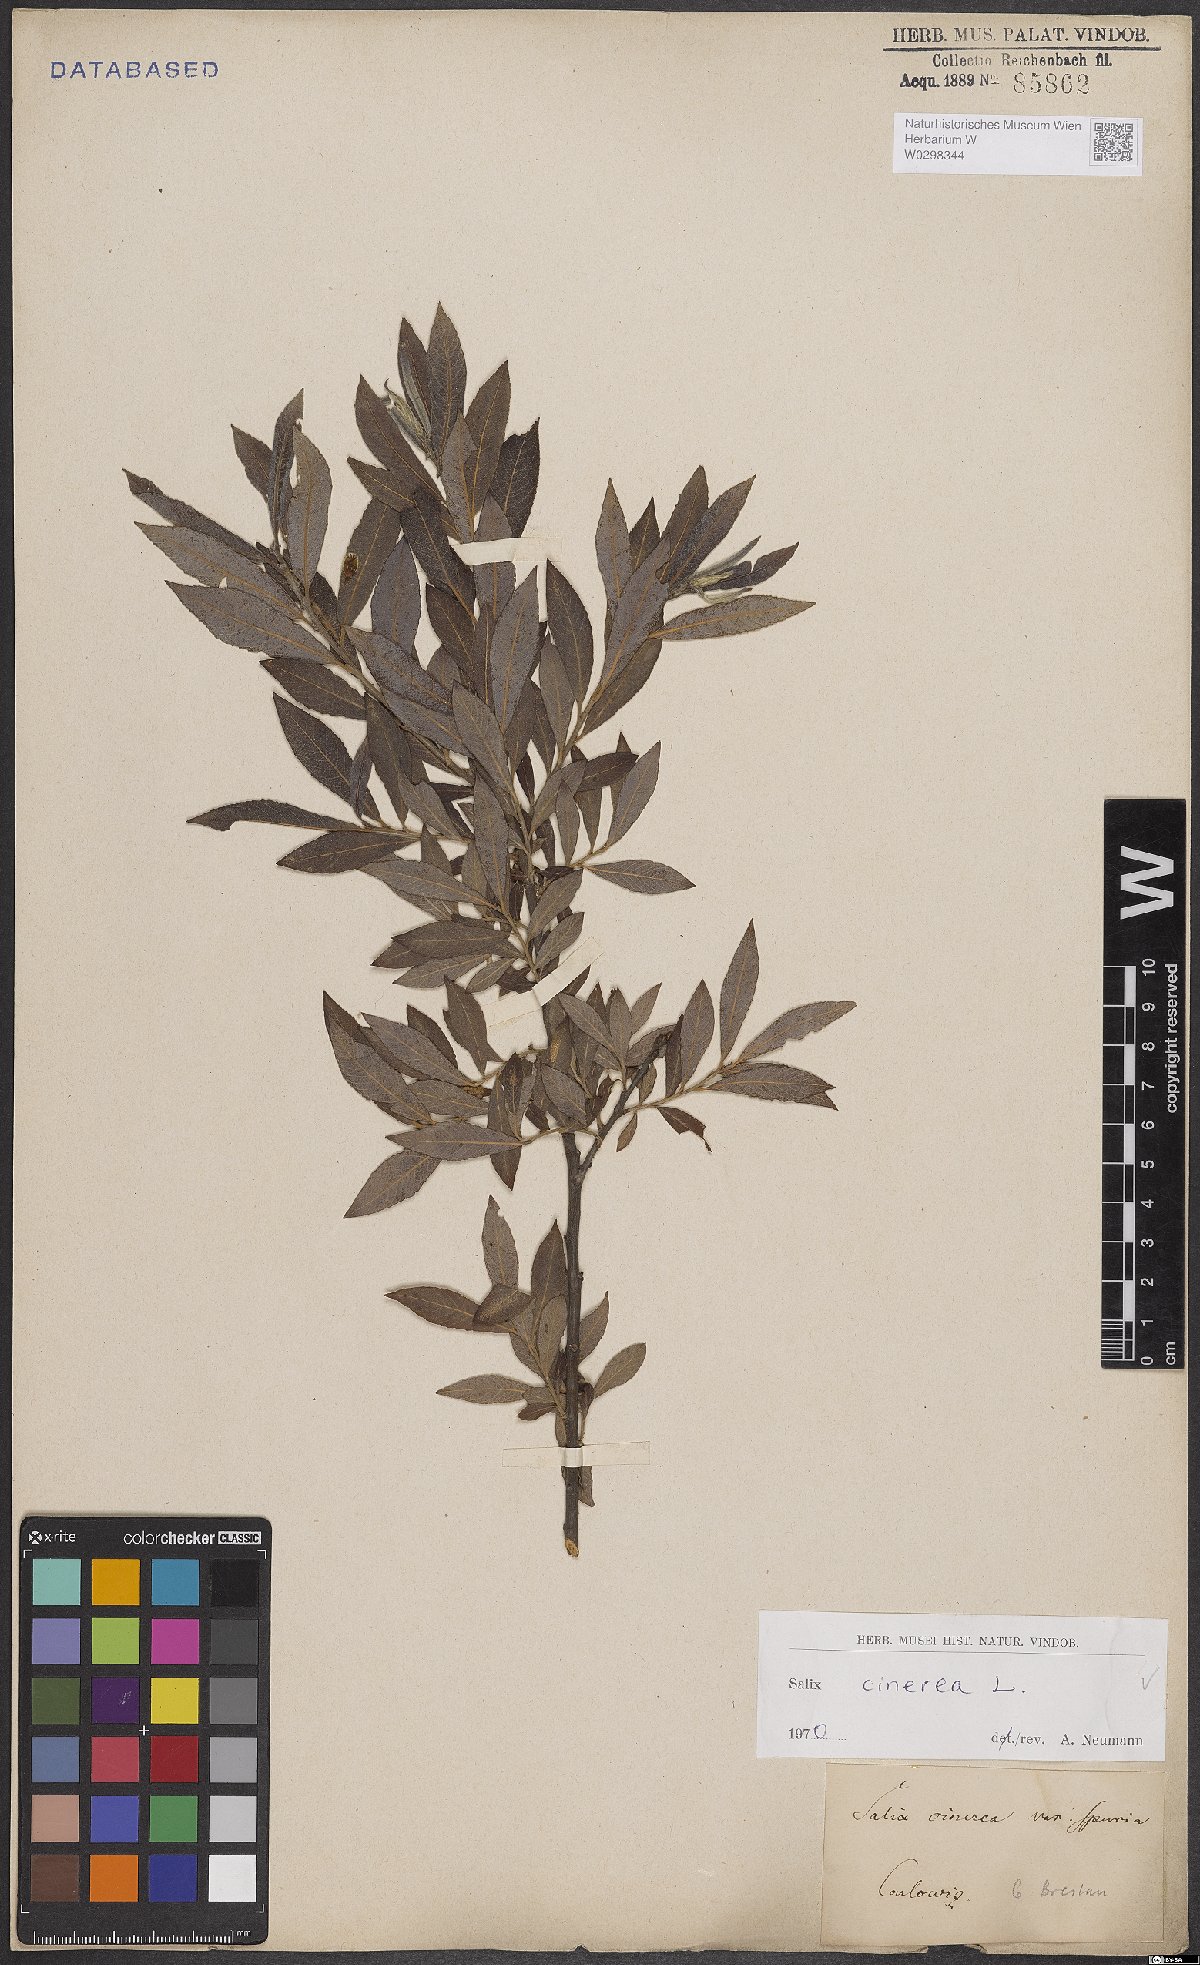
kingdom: Plantae
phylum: Tracheophyta
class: Magnoliopsida
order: Malpighiales
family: Salicaceae
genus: Salix
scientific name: Salix cinerea
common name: Common sallow
